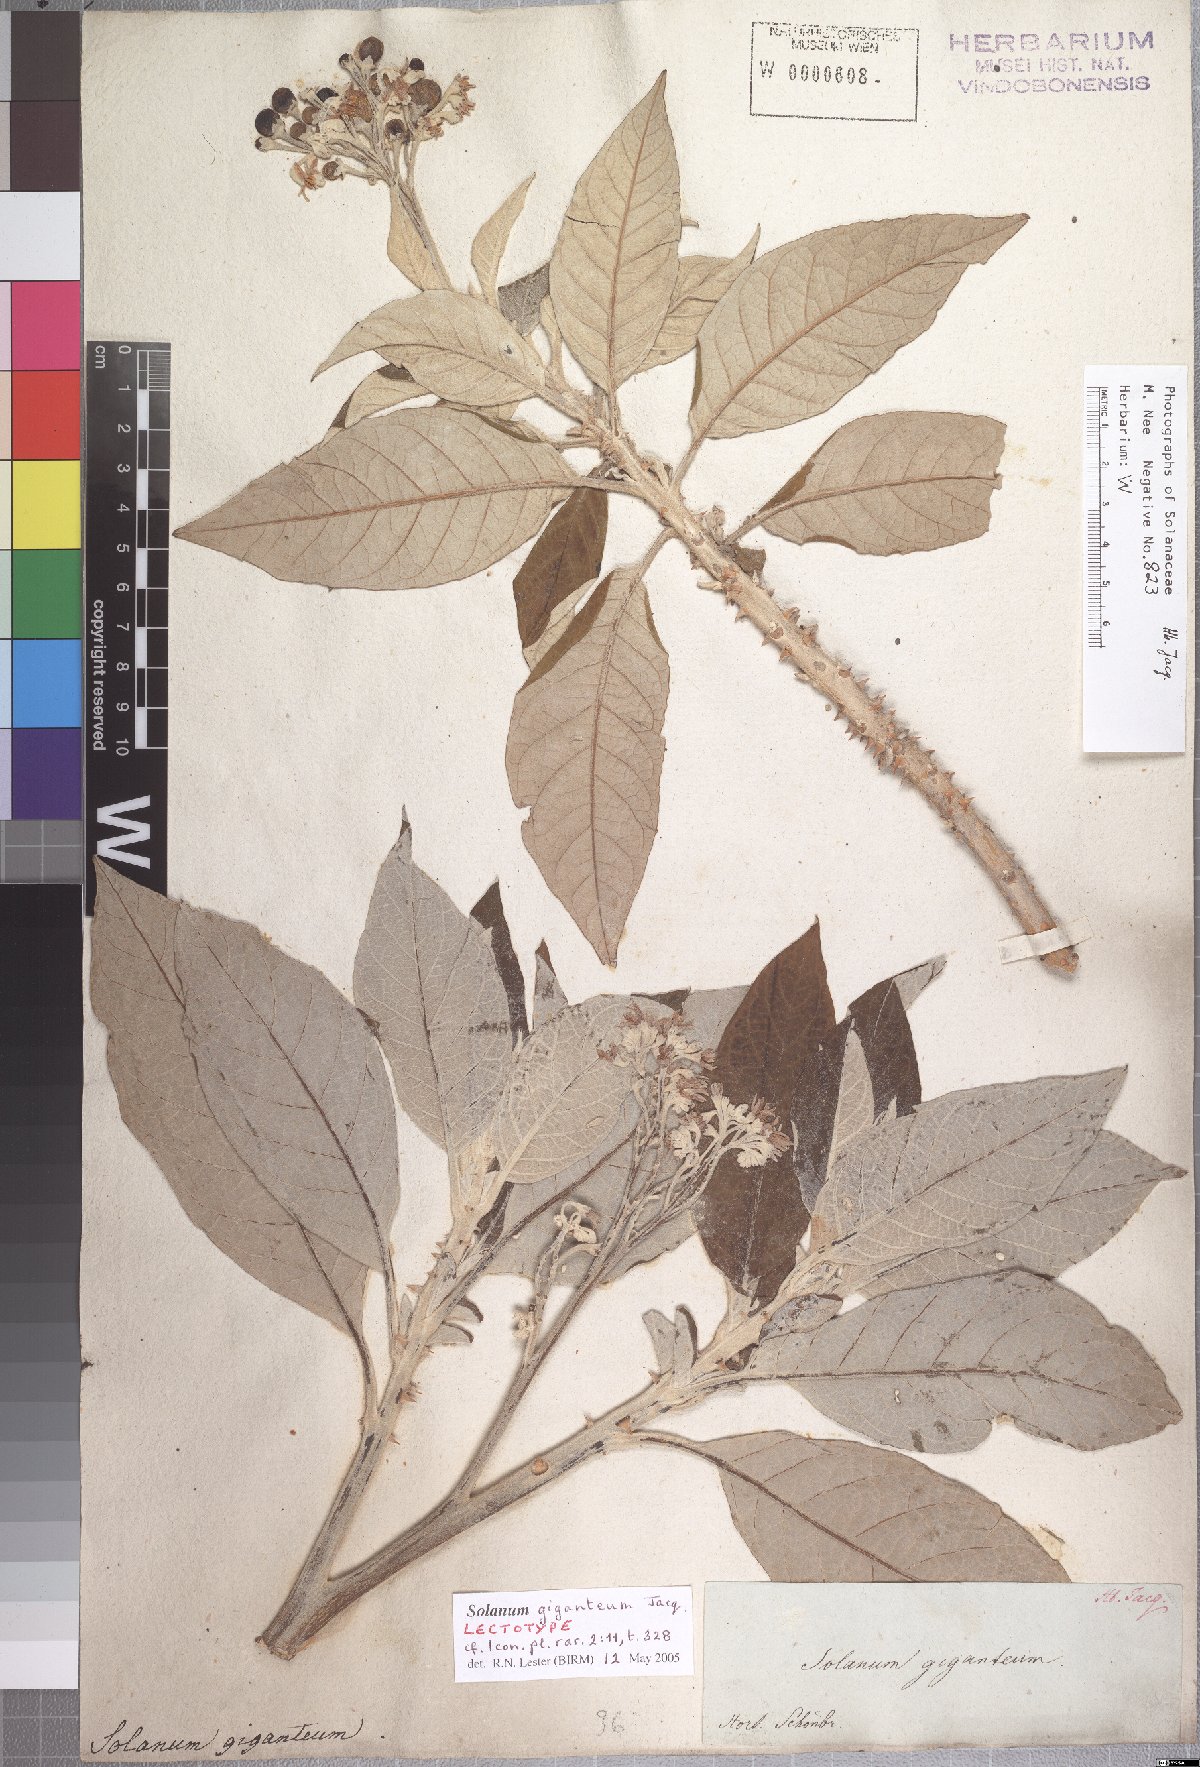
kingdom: Plantae
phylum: Tracheophyta
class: Magnoliopsida
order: Solanales
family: Solanaceae
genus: Solanum
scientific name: Solanum giganteum
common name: Healing-leaf-tree
